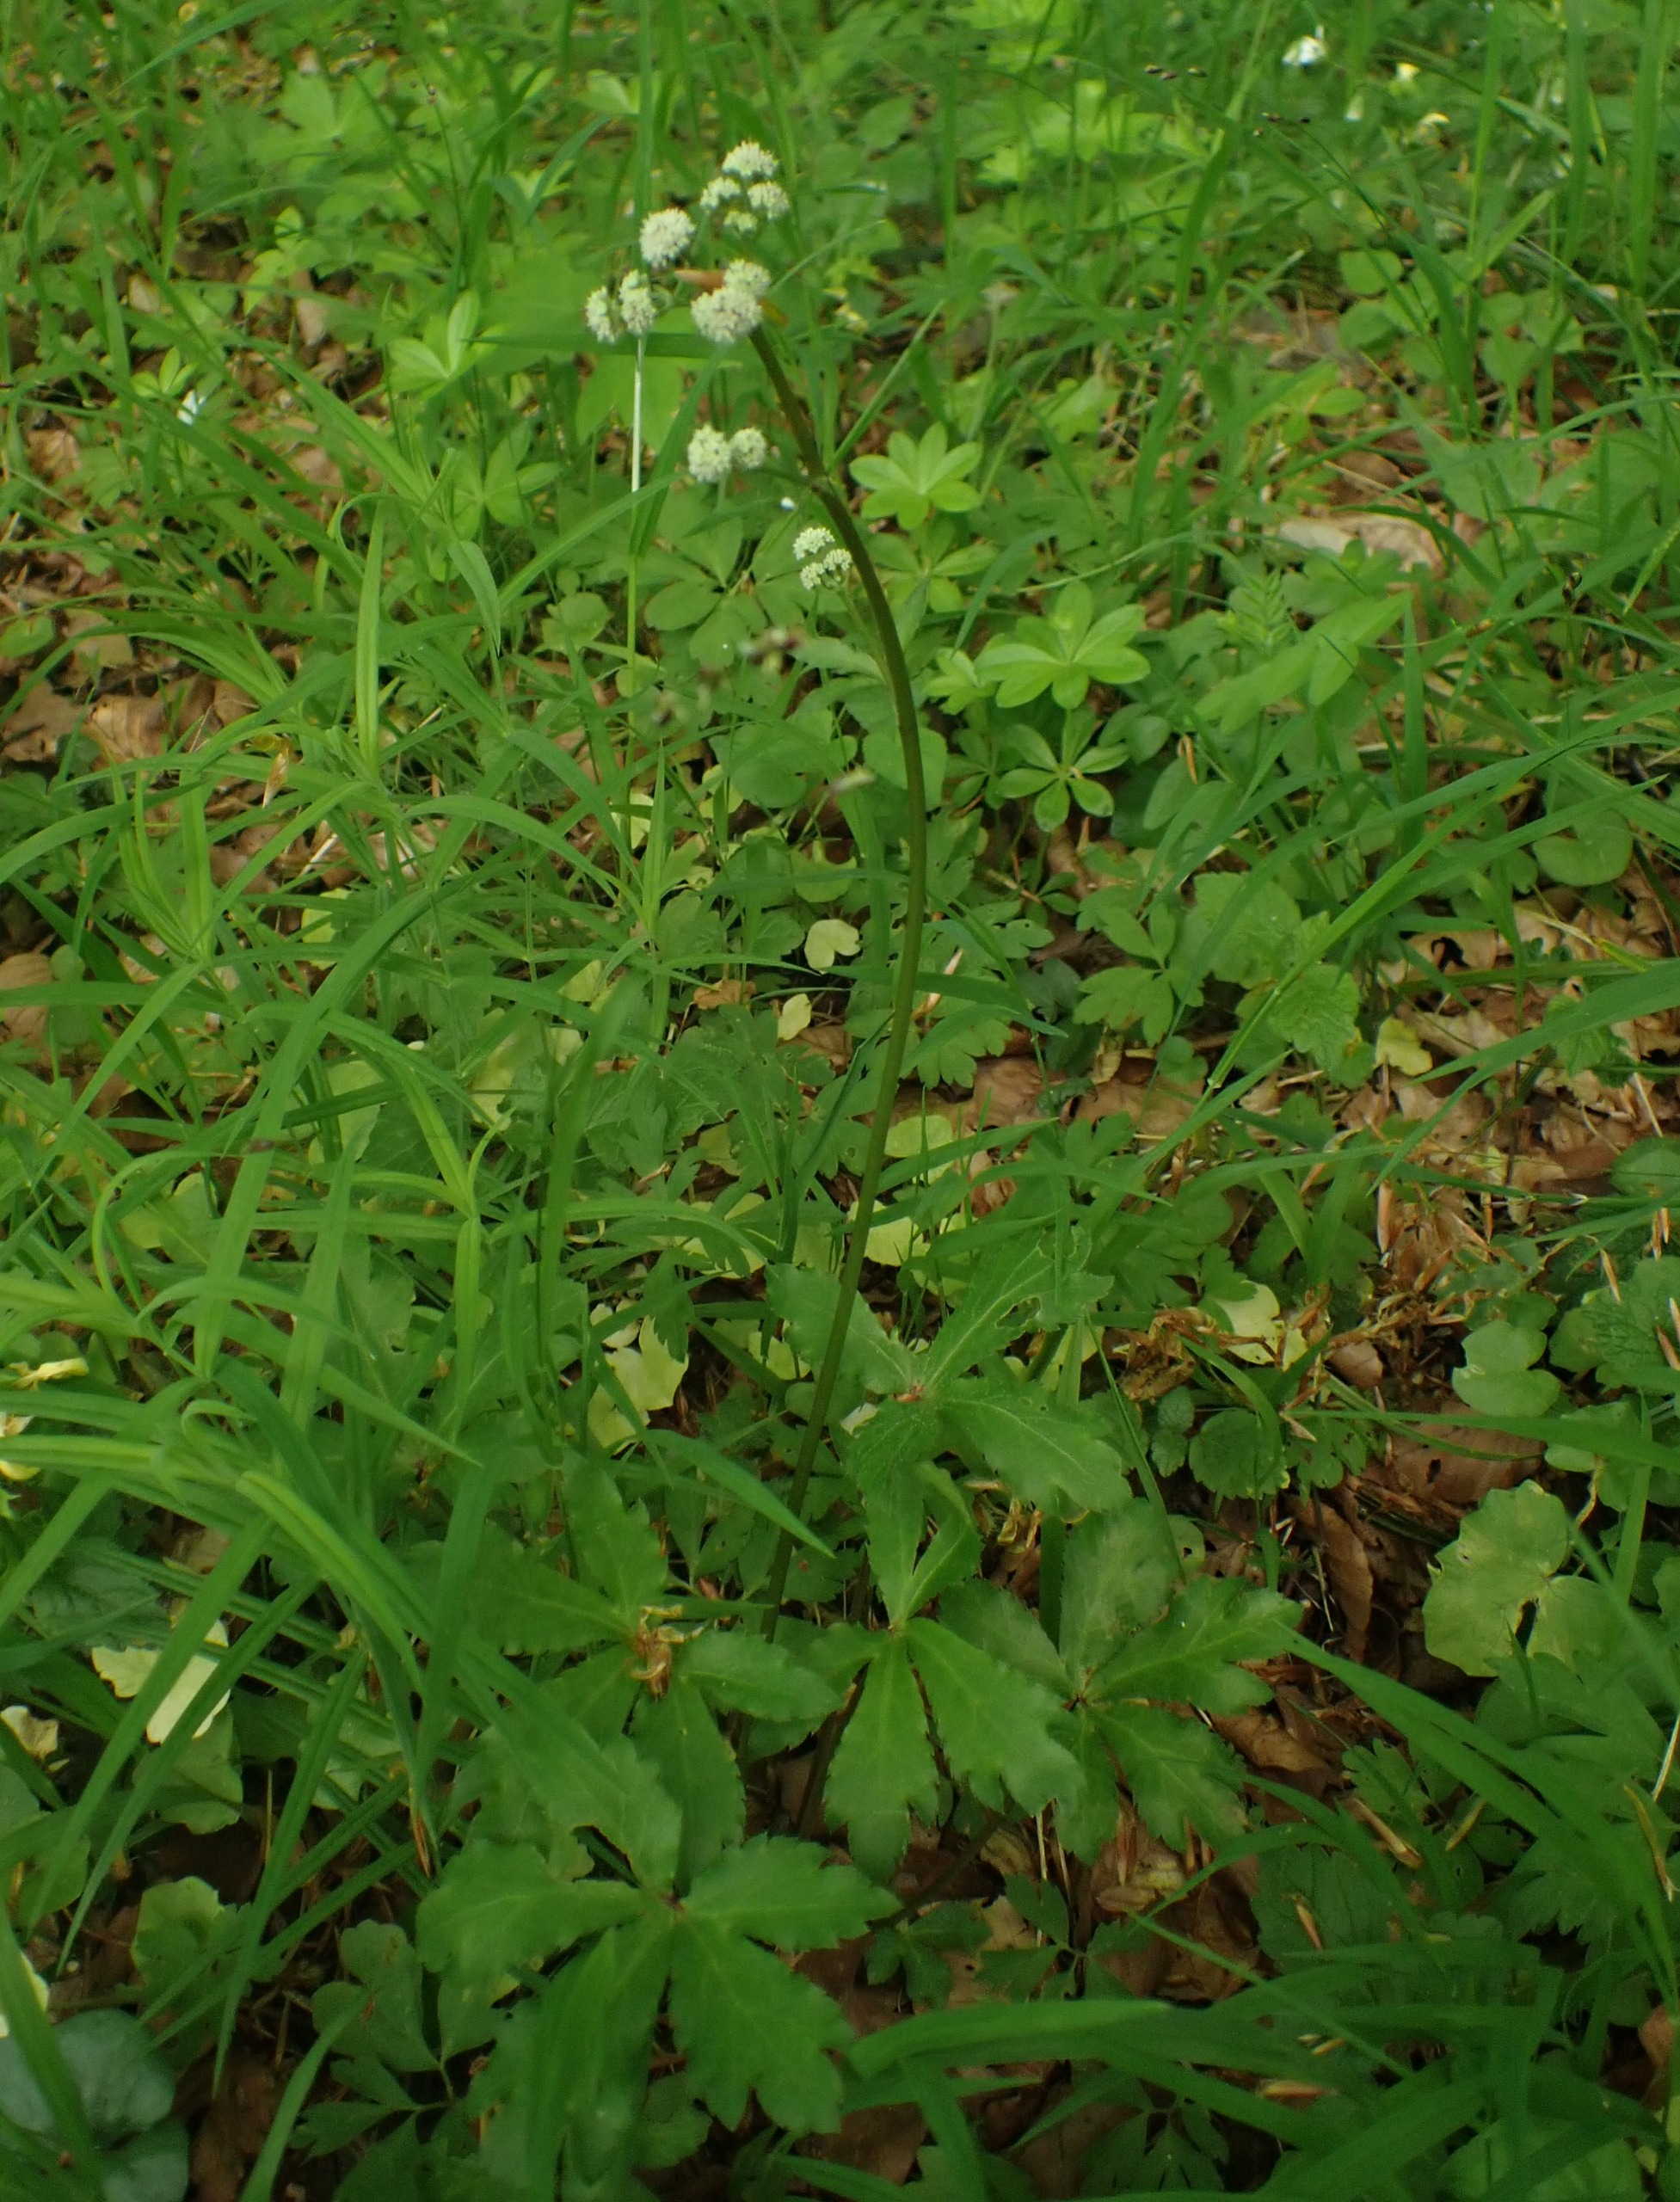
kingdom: Plantae
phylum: Tracheophyta
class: Magnoliopsida
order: Apiales
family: Apiaceae
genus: Sanicula
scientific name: Sanicula europaea
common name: Sanikel
